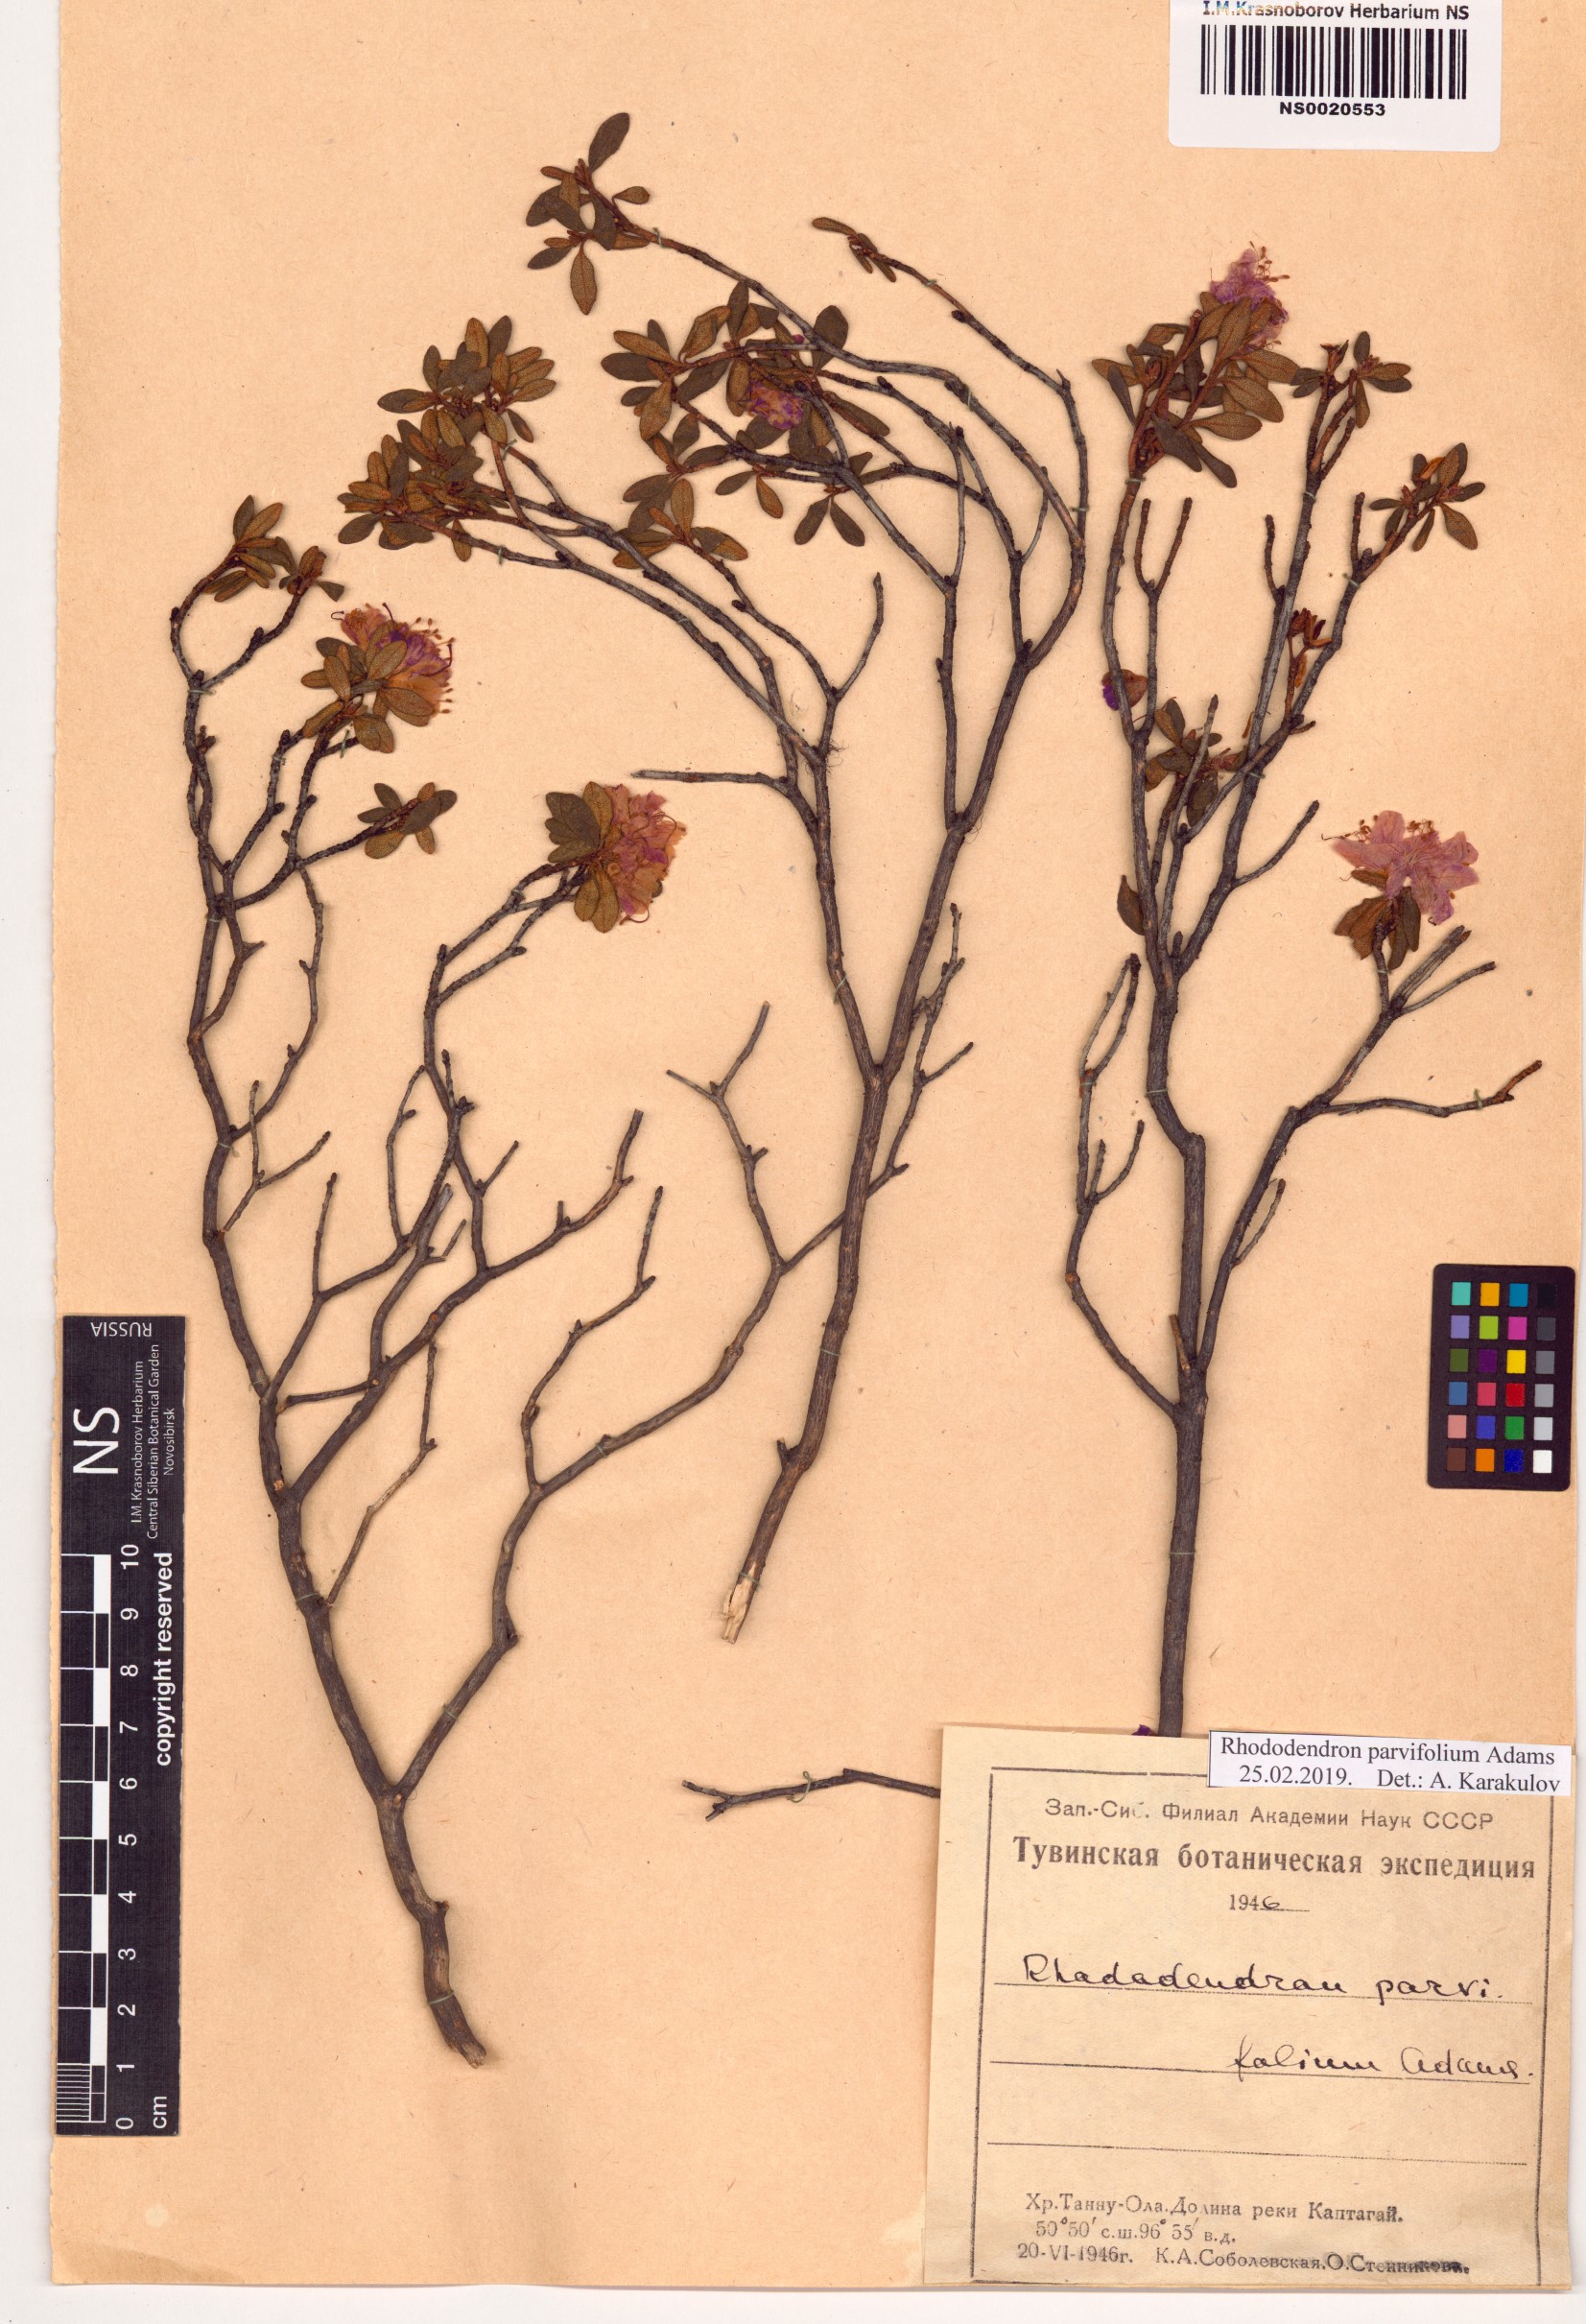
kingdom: Plantae
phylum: Tracheophyta
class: Magnoliopsida
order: Ericales
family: Ericaceae
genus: Rhododendron
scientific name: Rhododendron parvifolium
